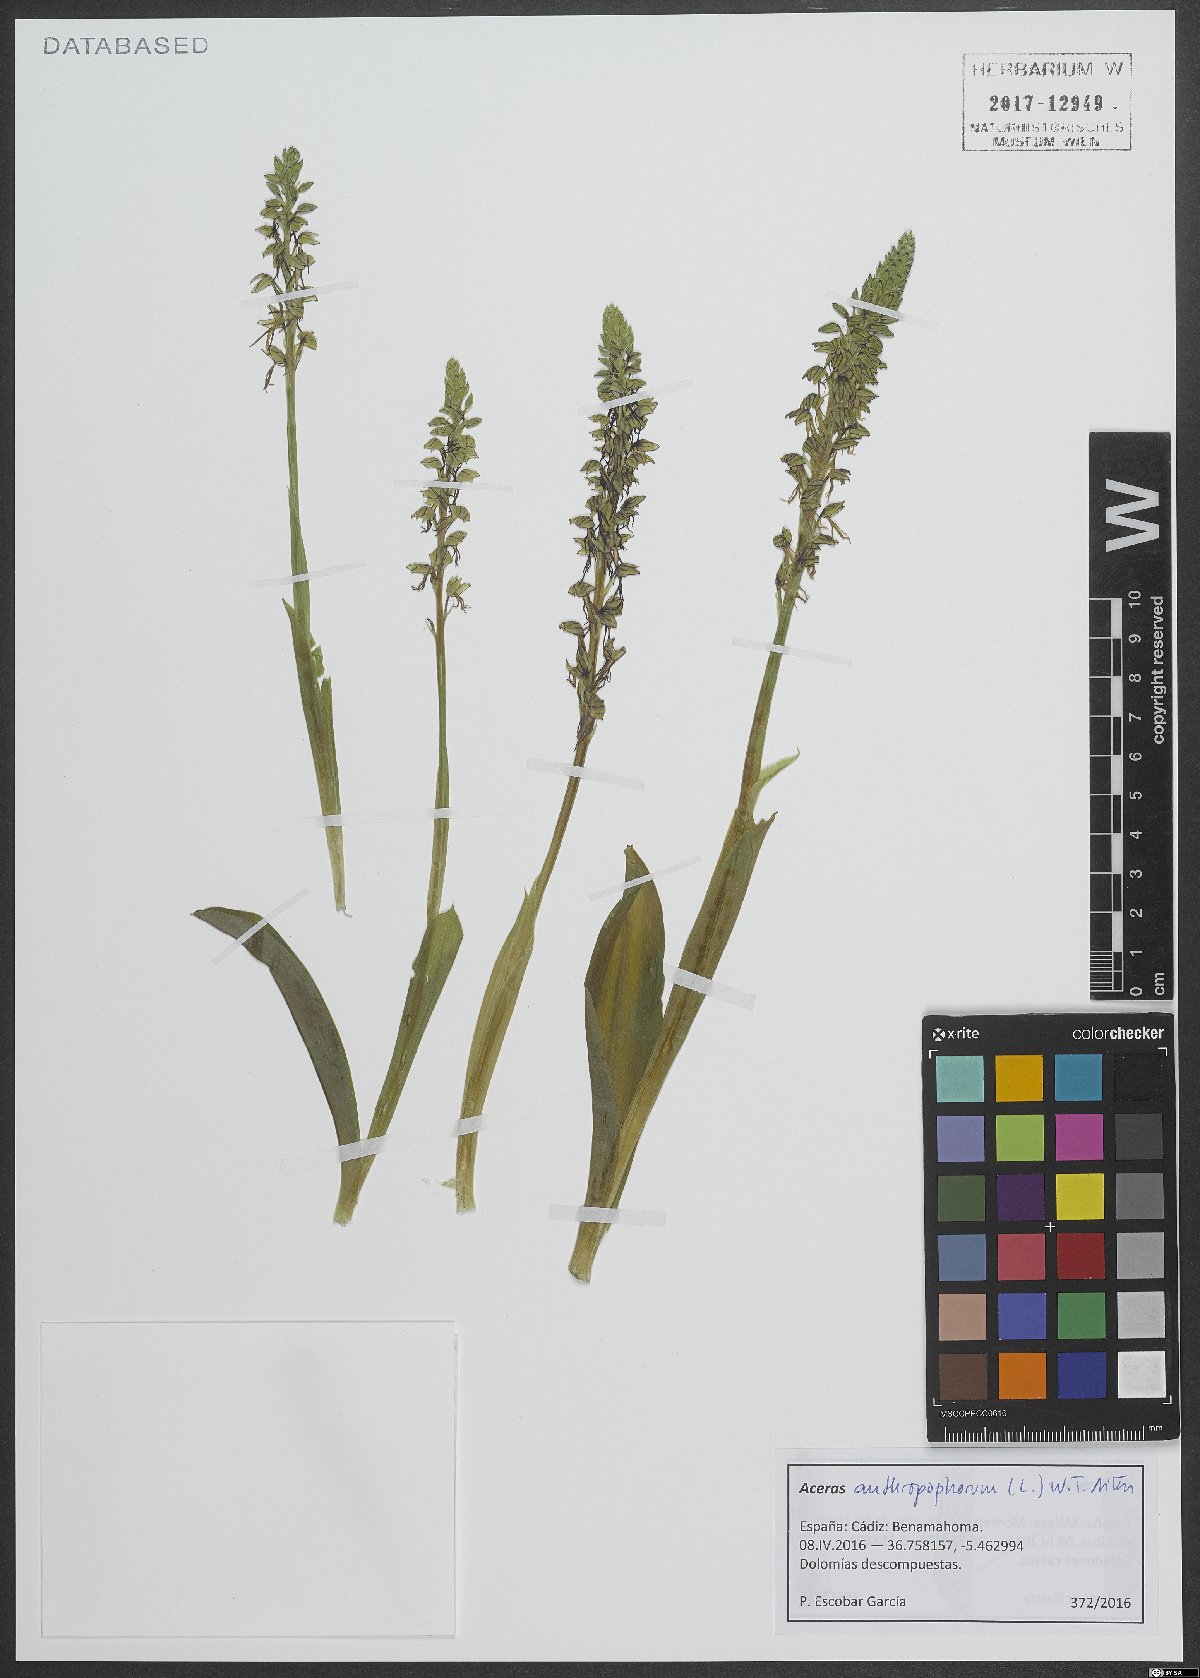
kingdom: Plantae
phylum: Tracheophyta
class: Liliopsida
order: Asparagales
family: Orchidaceae
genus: Orchis
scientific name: Orchis anthropophora
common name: Man orchid
